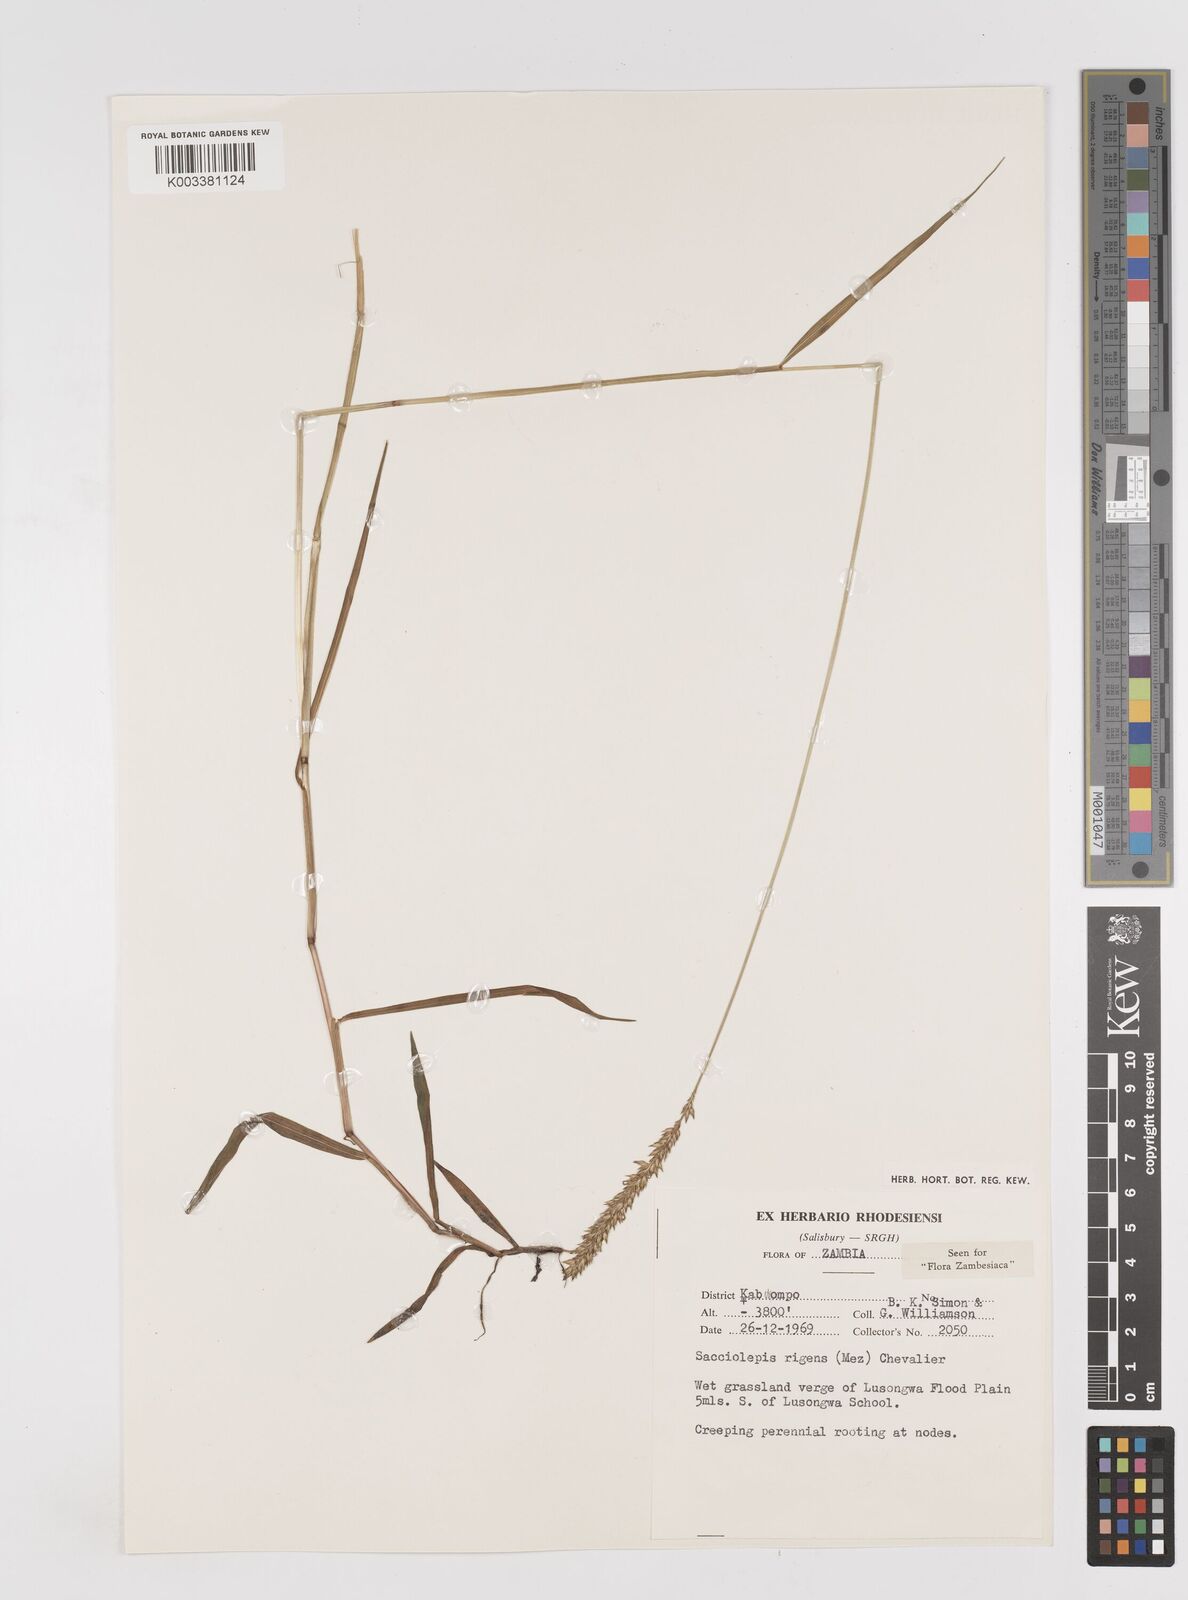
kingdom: Plantae
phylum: Tracheophyta
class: Liliopsida
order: Poales
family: Poaceae
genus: Sacciolepis
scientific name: Sacciolepis leptorrhachis
